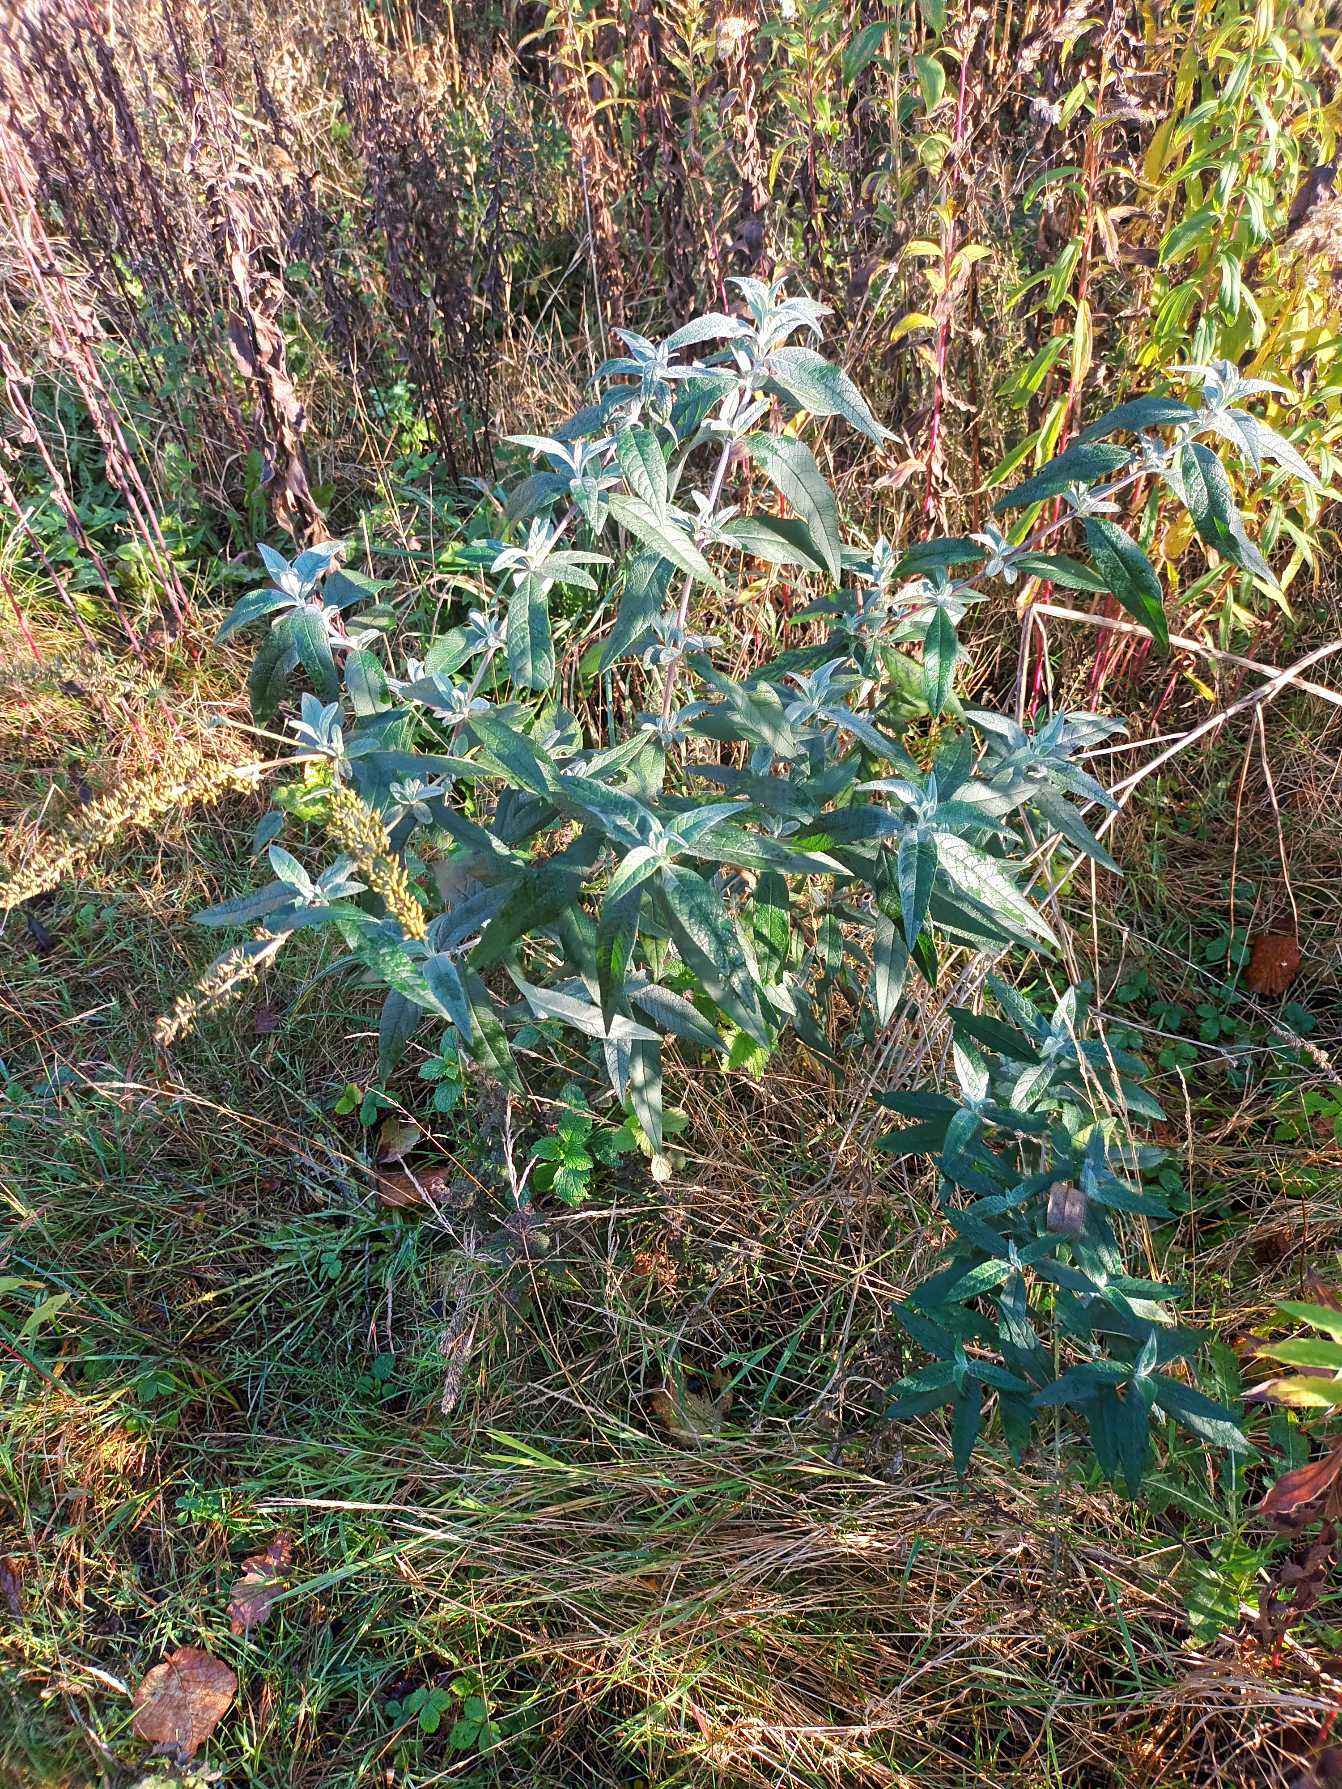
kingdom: Plantae
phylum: Tracheophyta
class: Magnoliopsida
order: Lamiales
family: Scrophulariaceae
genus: Buddleja
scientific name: Buddleja davidii
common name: Sommerfuglebusk
